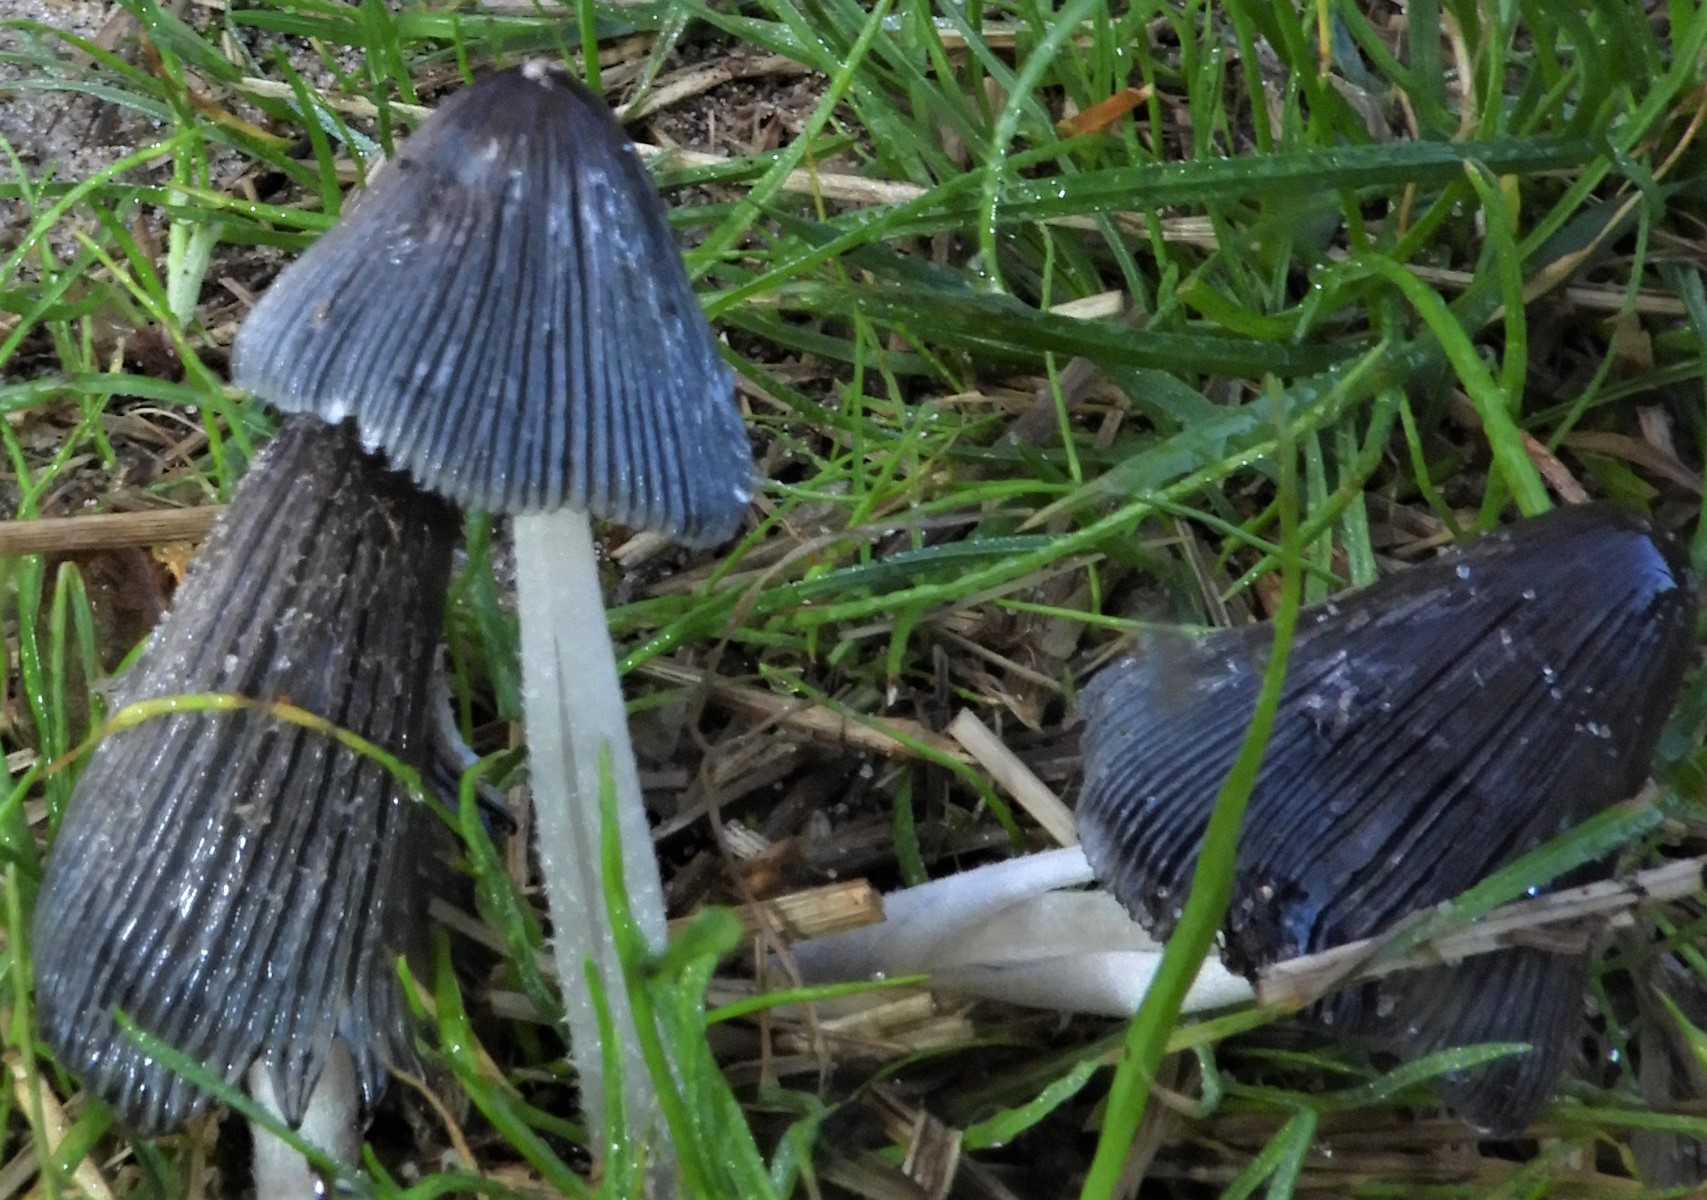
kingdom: Fungi
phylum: Basidiomycota
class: Agaricomycetes
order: Agaricales
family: Psathyrellaceae
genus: Coprinopsis
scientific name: Coprinopsis
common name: blækhat
